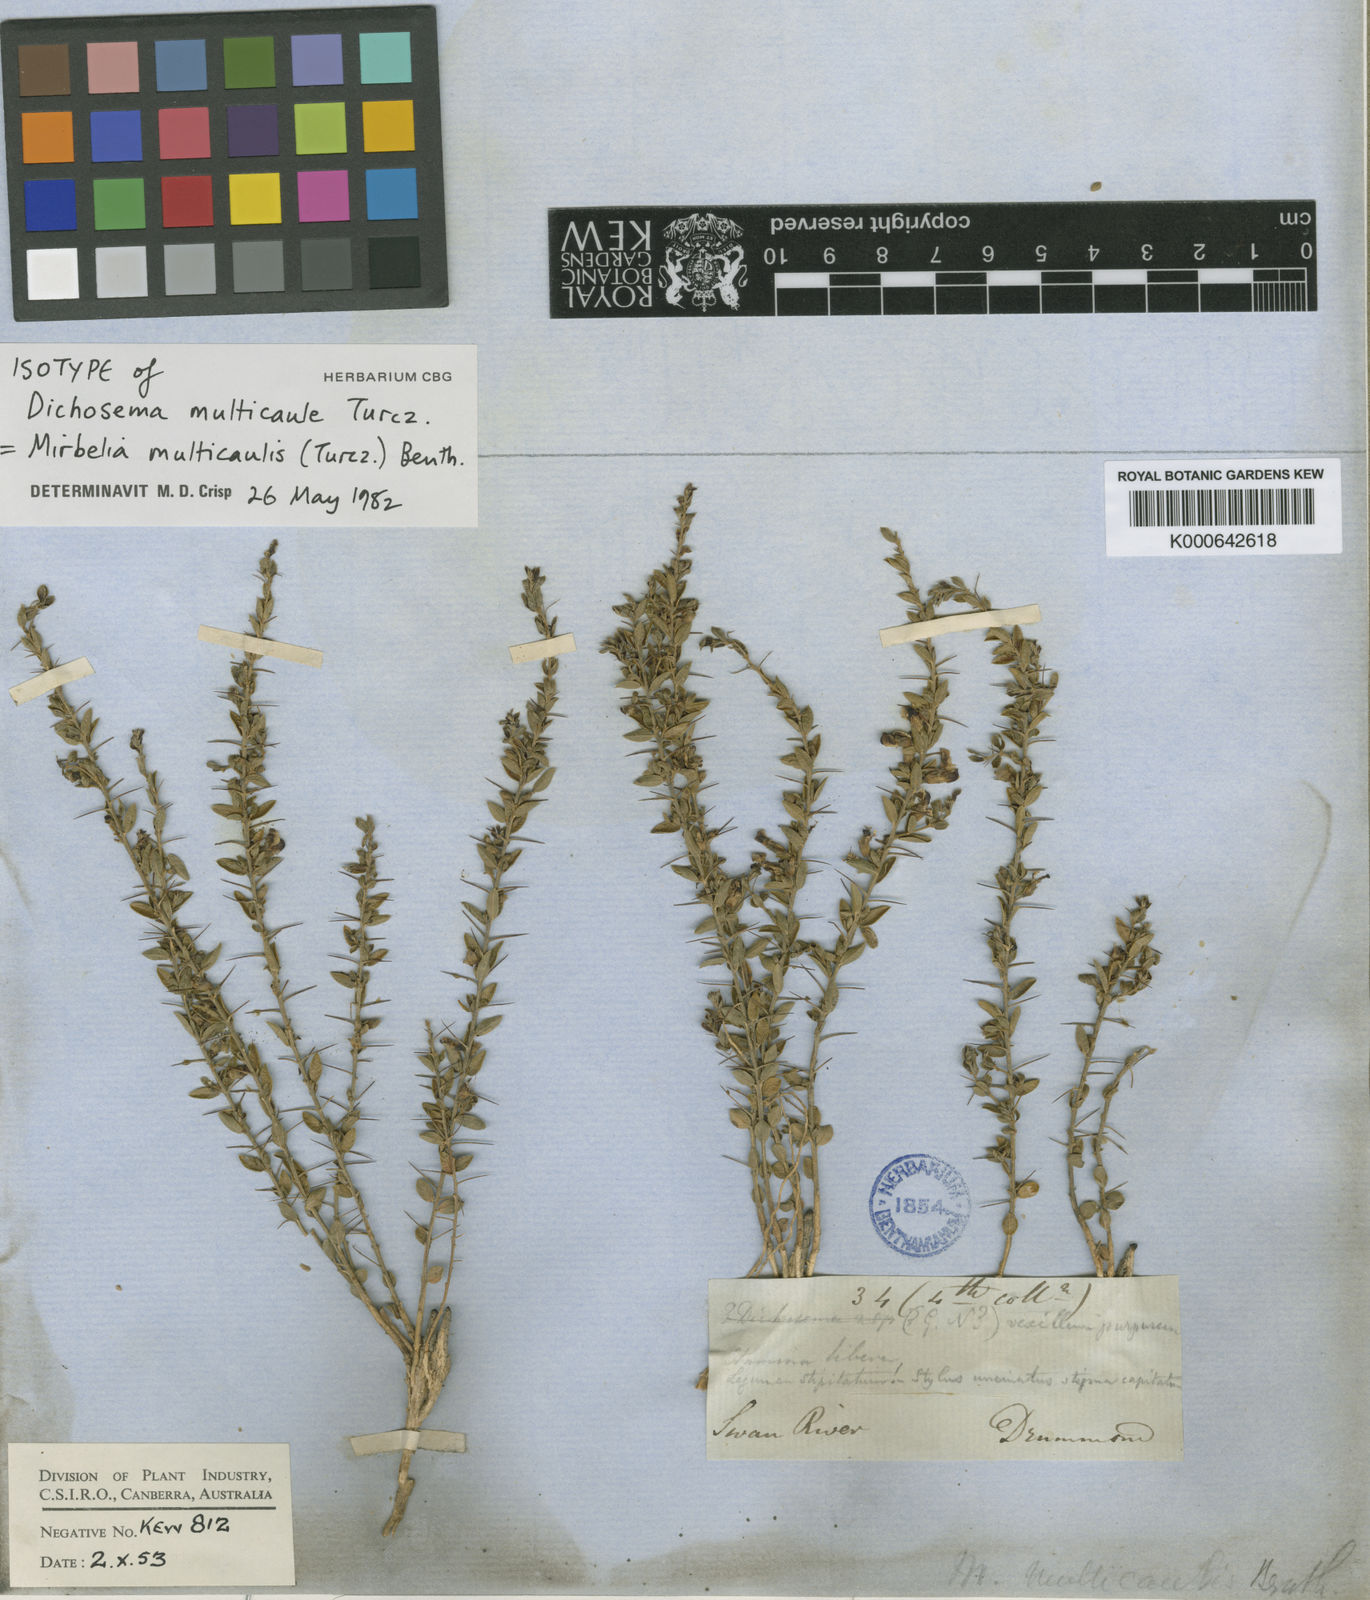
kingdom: Plantae
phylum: Tracheophyta
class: Magnoliopsida
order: Fabales
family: Fabaceae
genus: Mirbelia
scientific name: Mirbelia multicaulis
